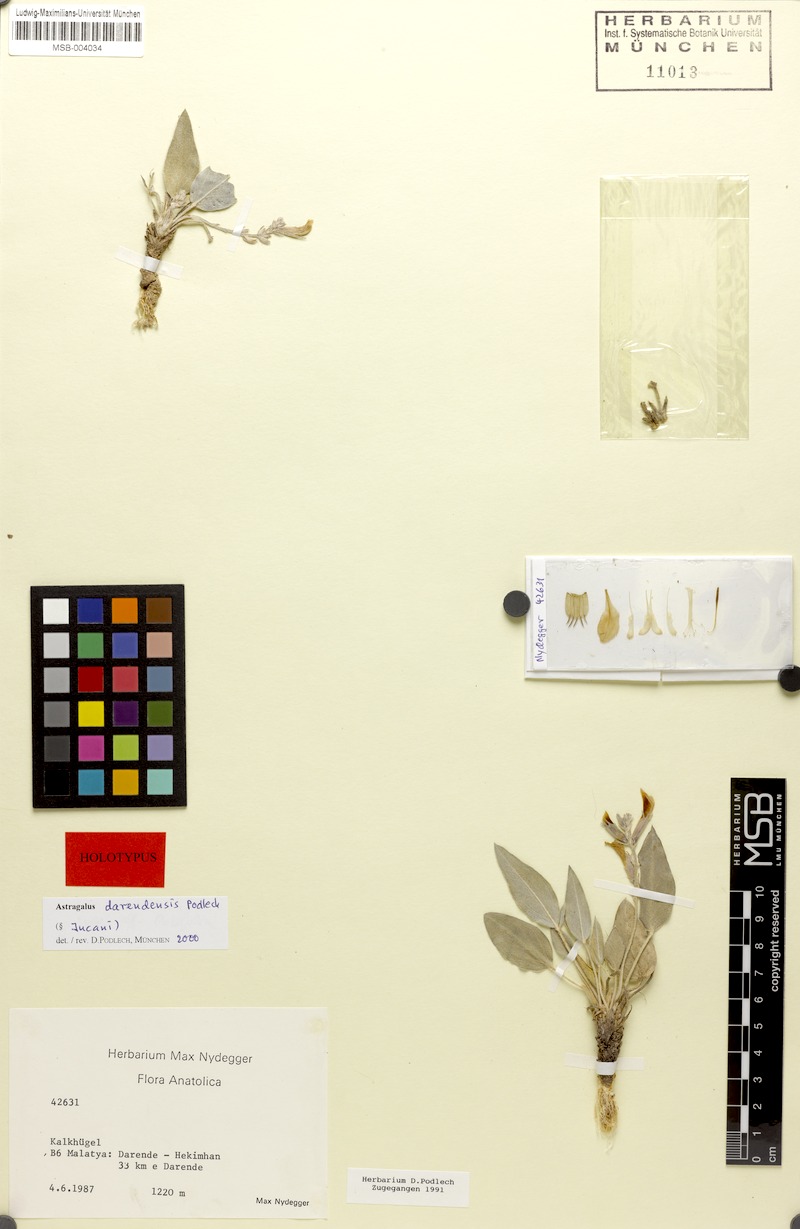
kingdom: Plantae
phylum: Tracheophyta
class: Magnoliopsida
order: Fabales
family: Fabaceae
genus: Astragalus
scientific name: Astragalus pinetorum
